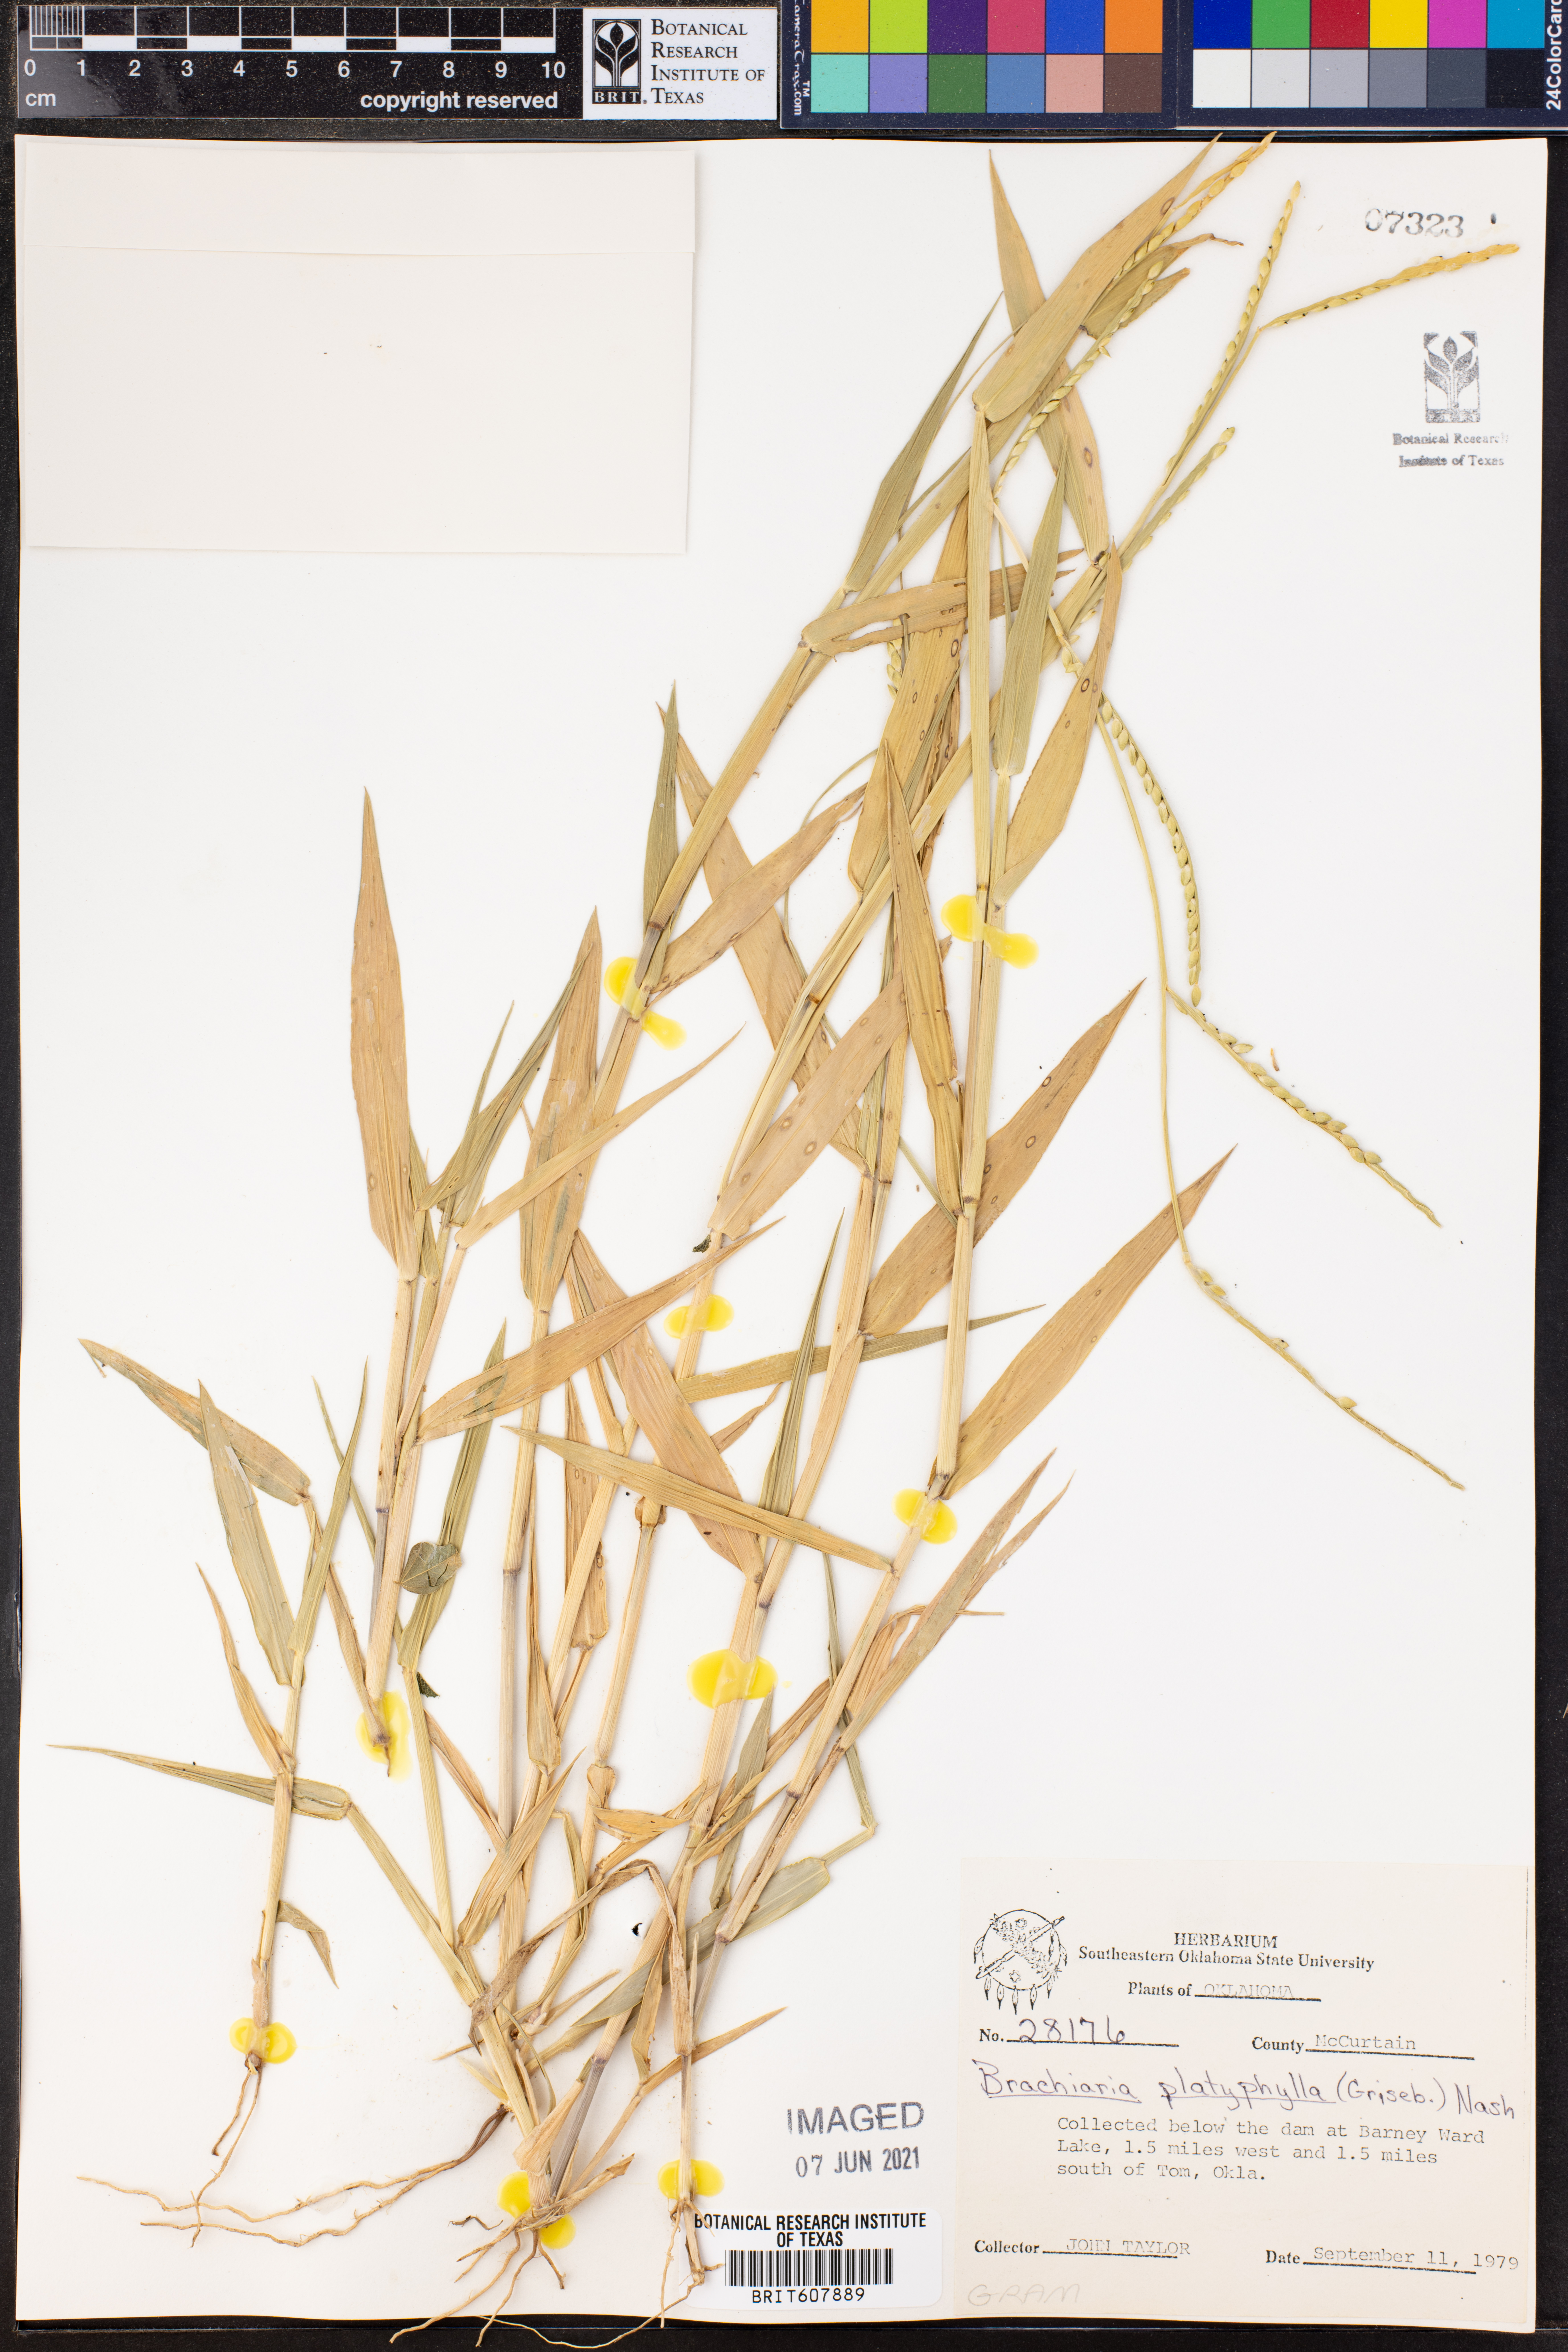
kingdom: Plantae
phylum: Tracheophyta
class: Liliopsida
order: Poales
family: Poaceae
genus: Urochloa
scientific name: Urochloa platyphylla
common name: White para grass
